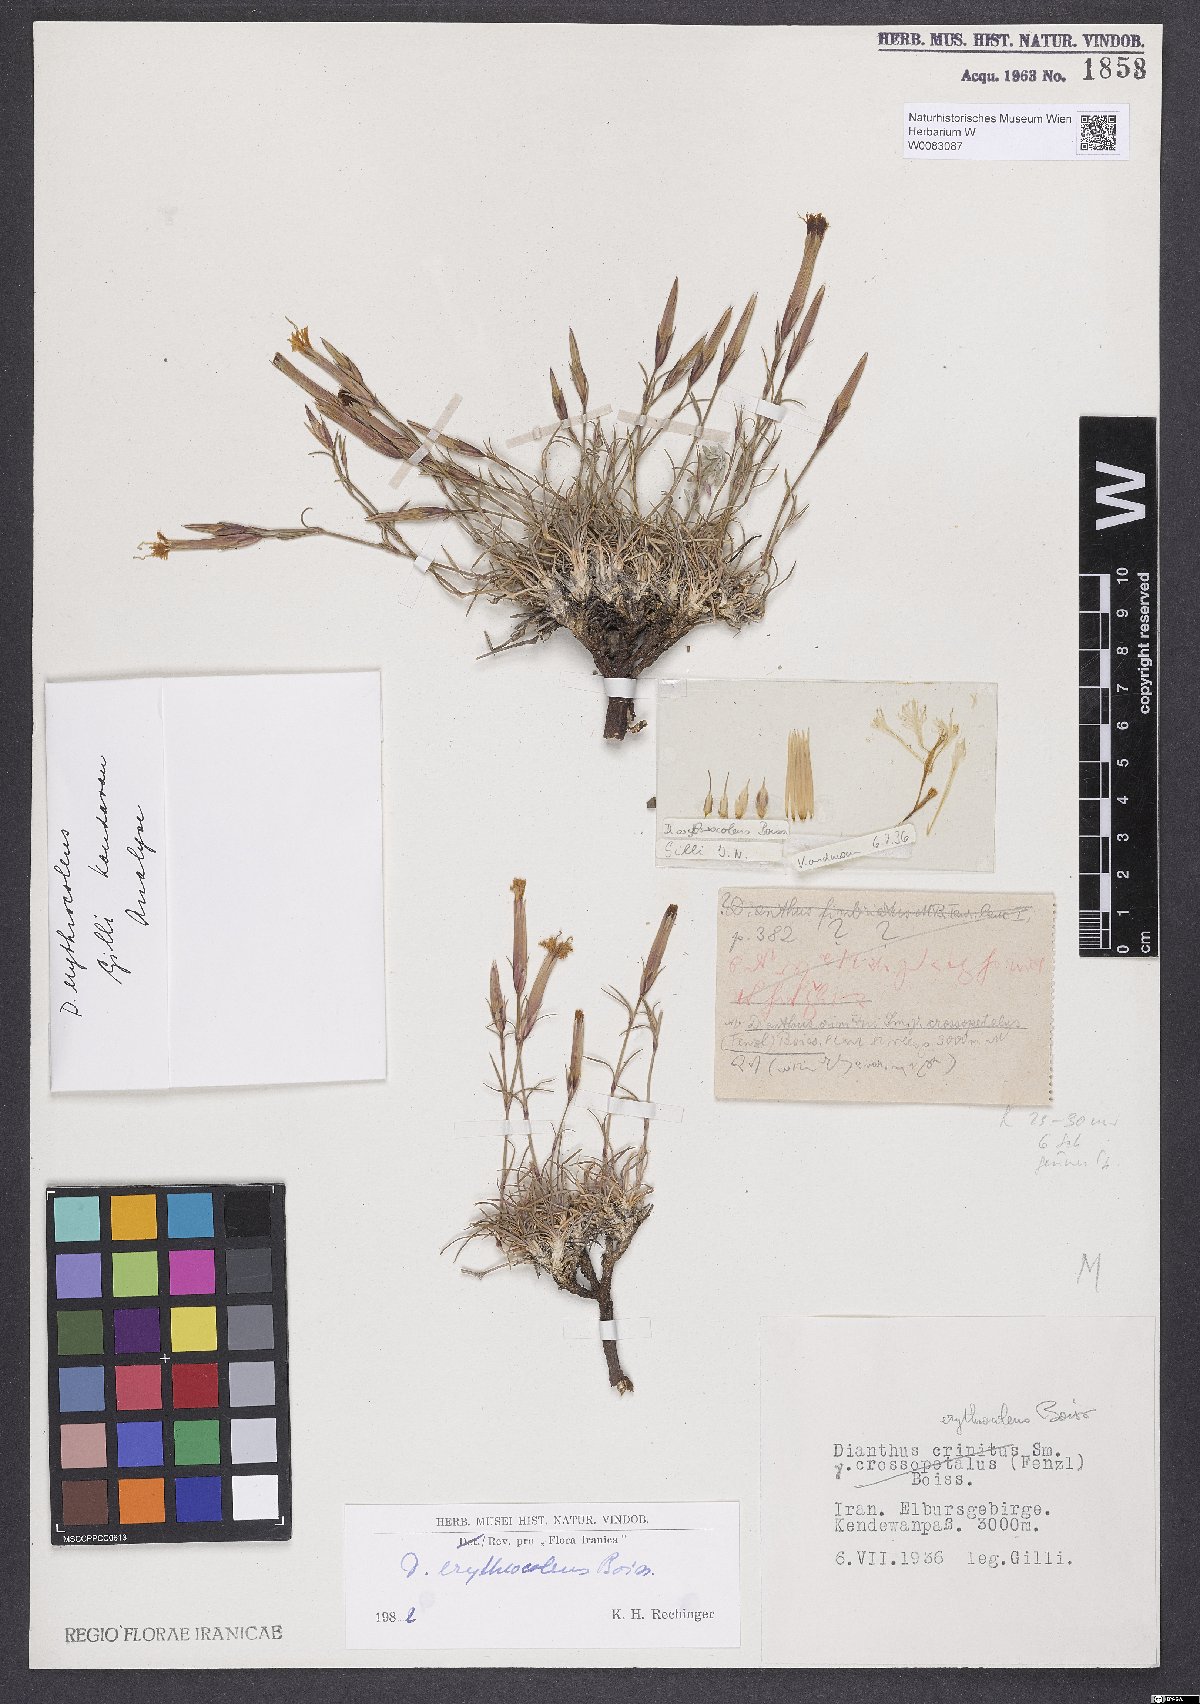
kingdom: Plantae
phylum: Tracheophyta
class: Magnoliopsida
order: Caryophyllales
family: Caryophyllaceae
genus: Dianthus
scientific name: Dianthus erythrocoleus
